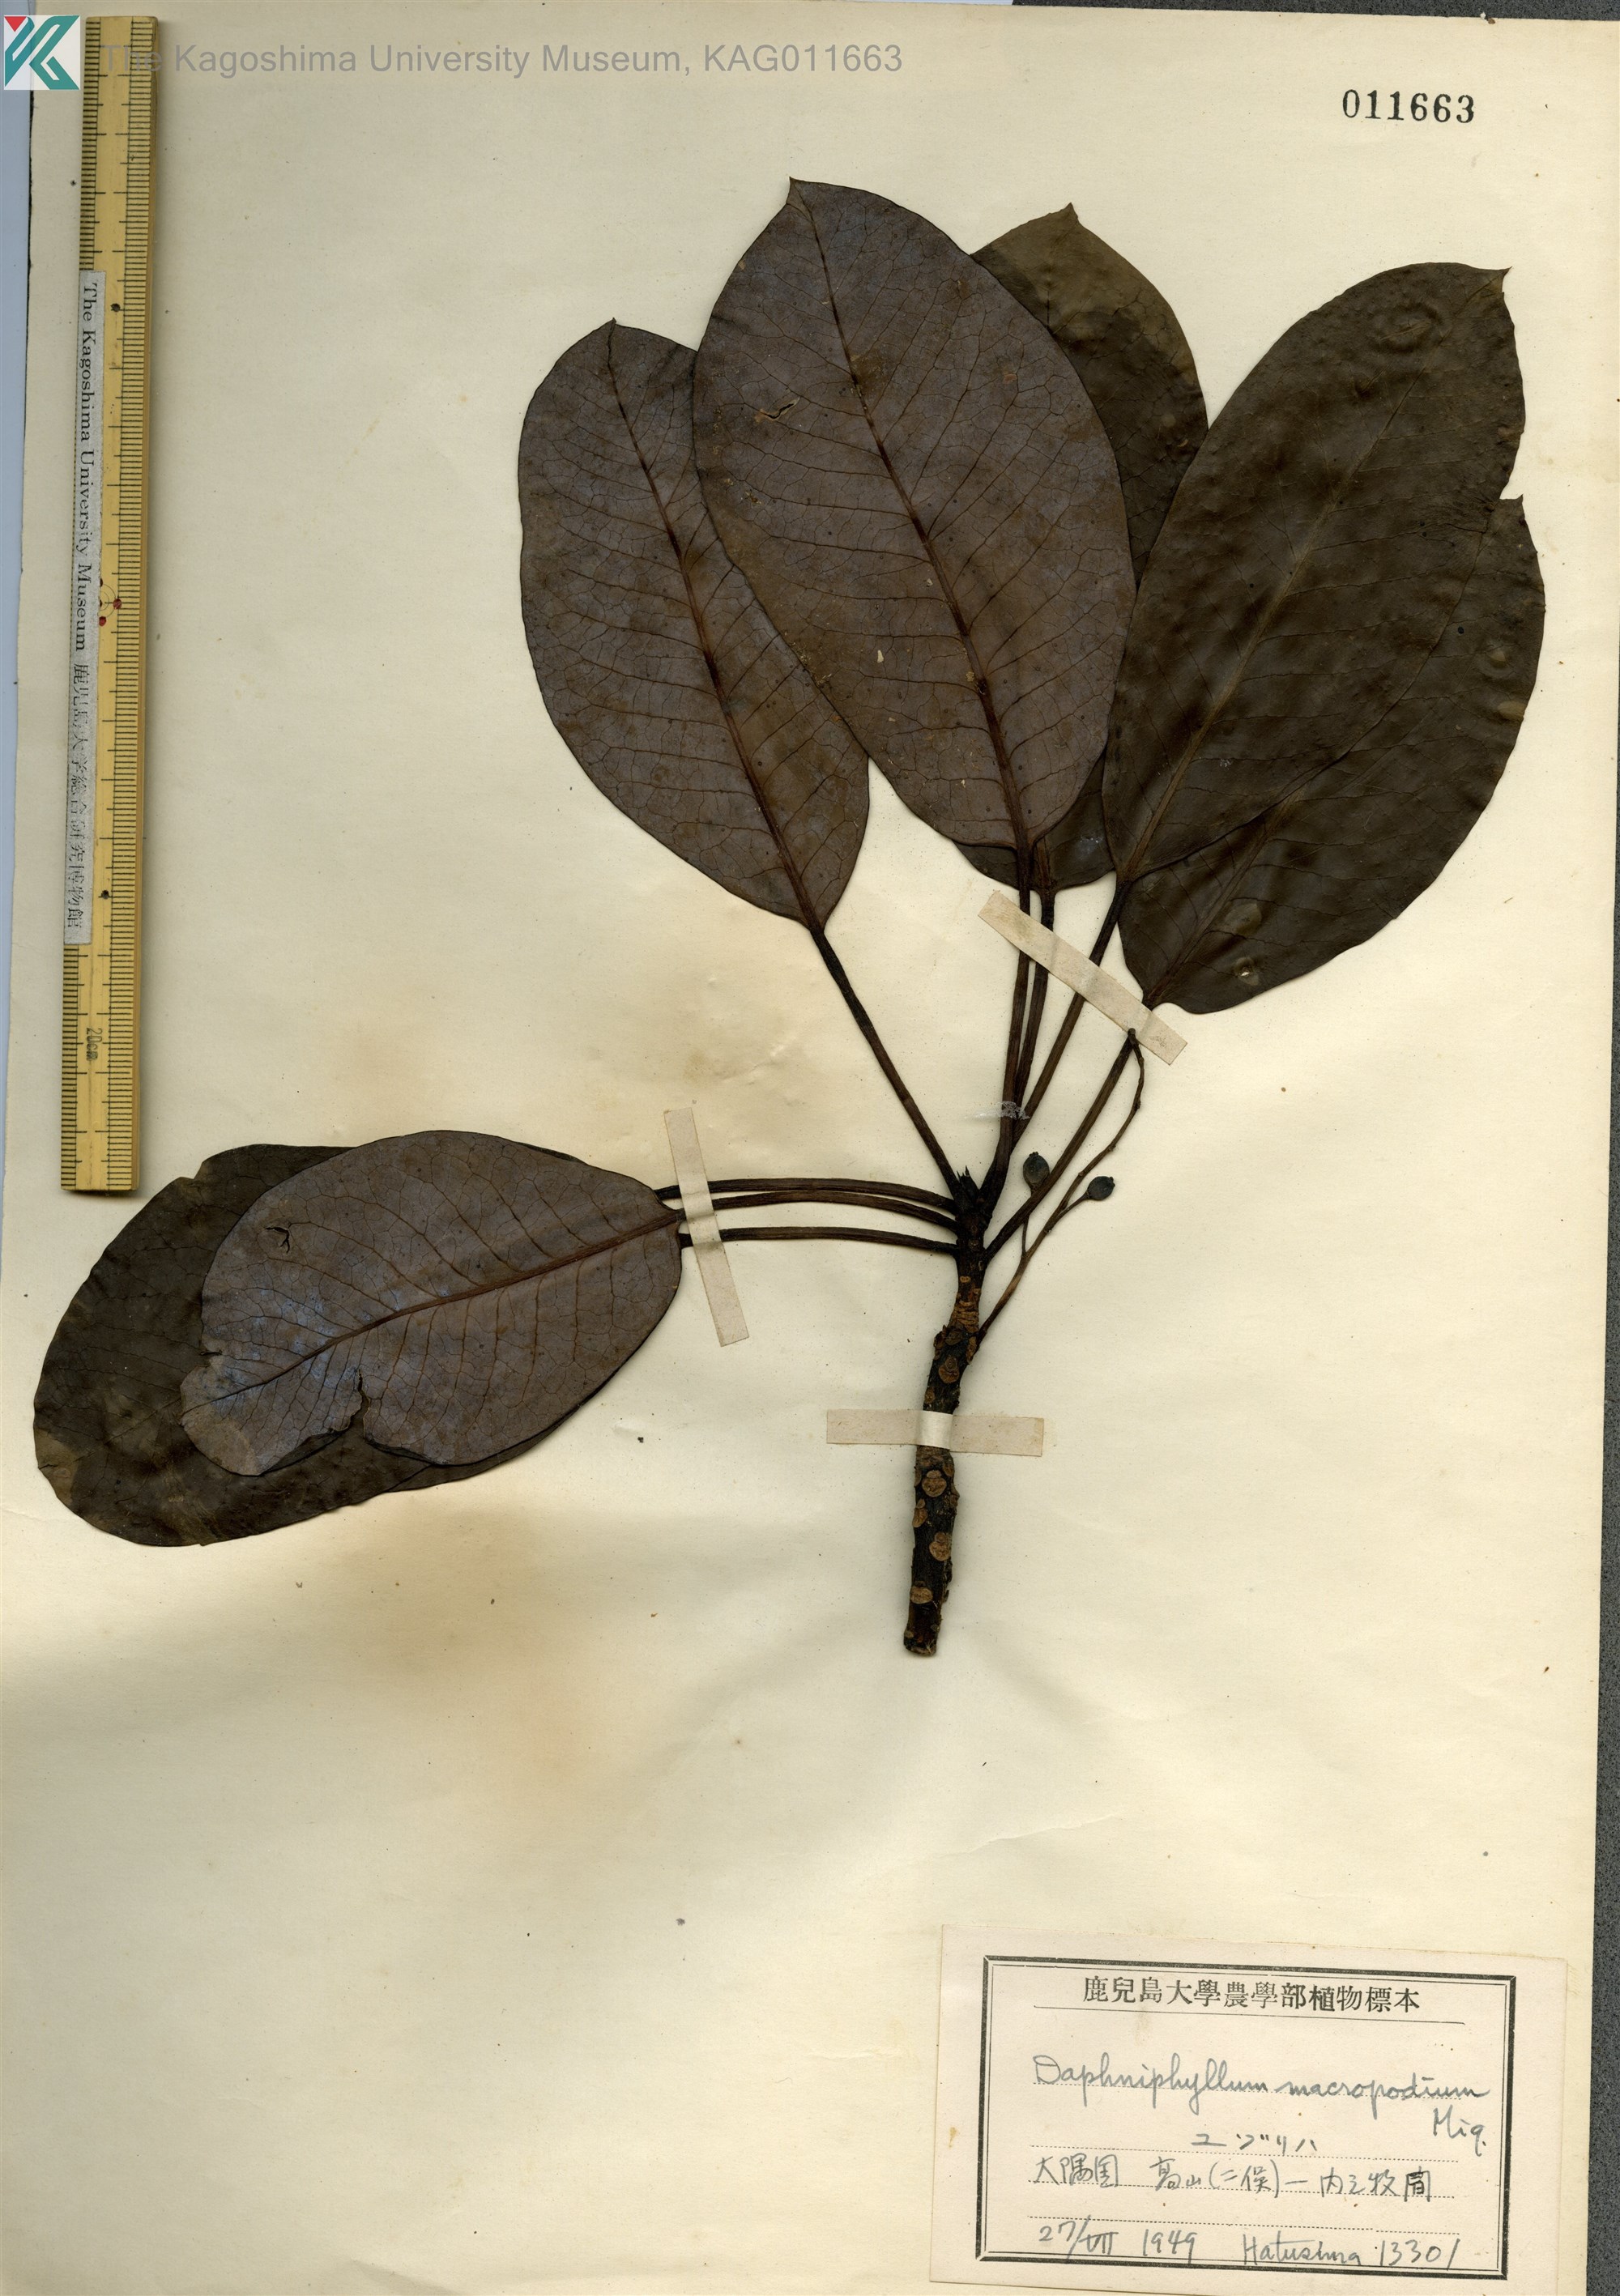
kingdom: Plantae
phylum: Tracheophyta
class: Magnoliopsida
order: Saxifragales
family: Daphniphyllaceae
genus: Daphniphyllum
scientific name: Daphniphyllum macropodum
